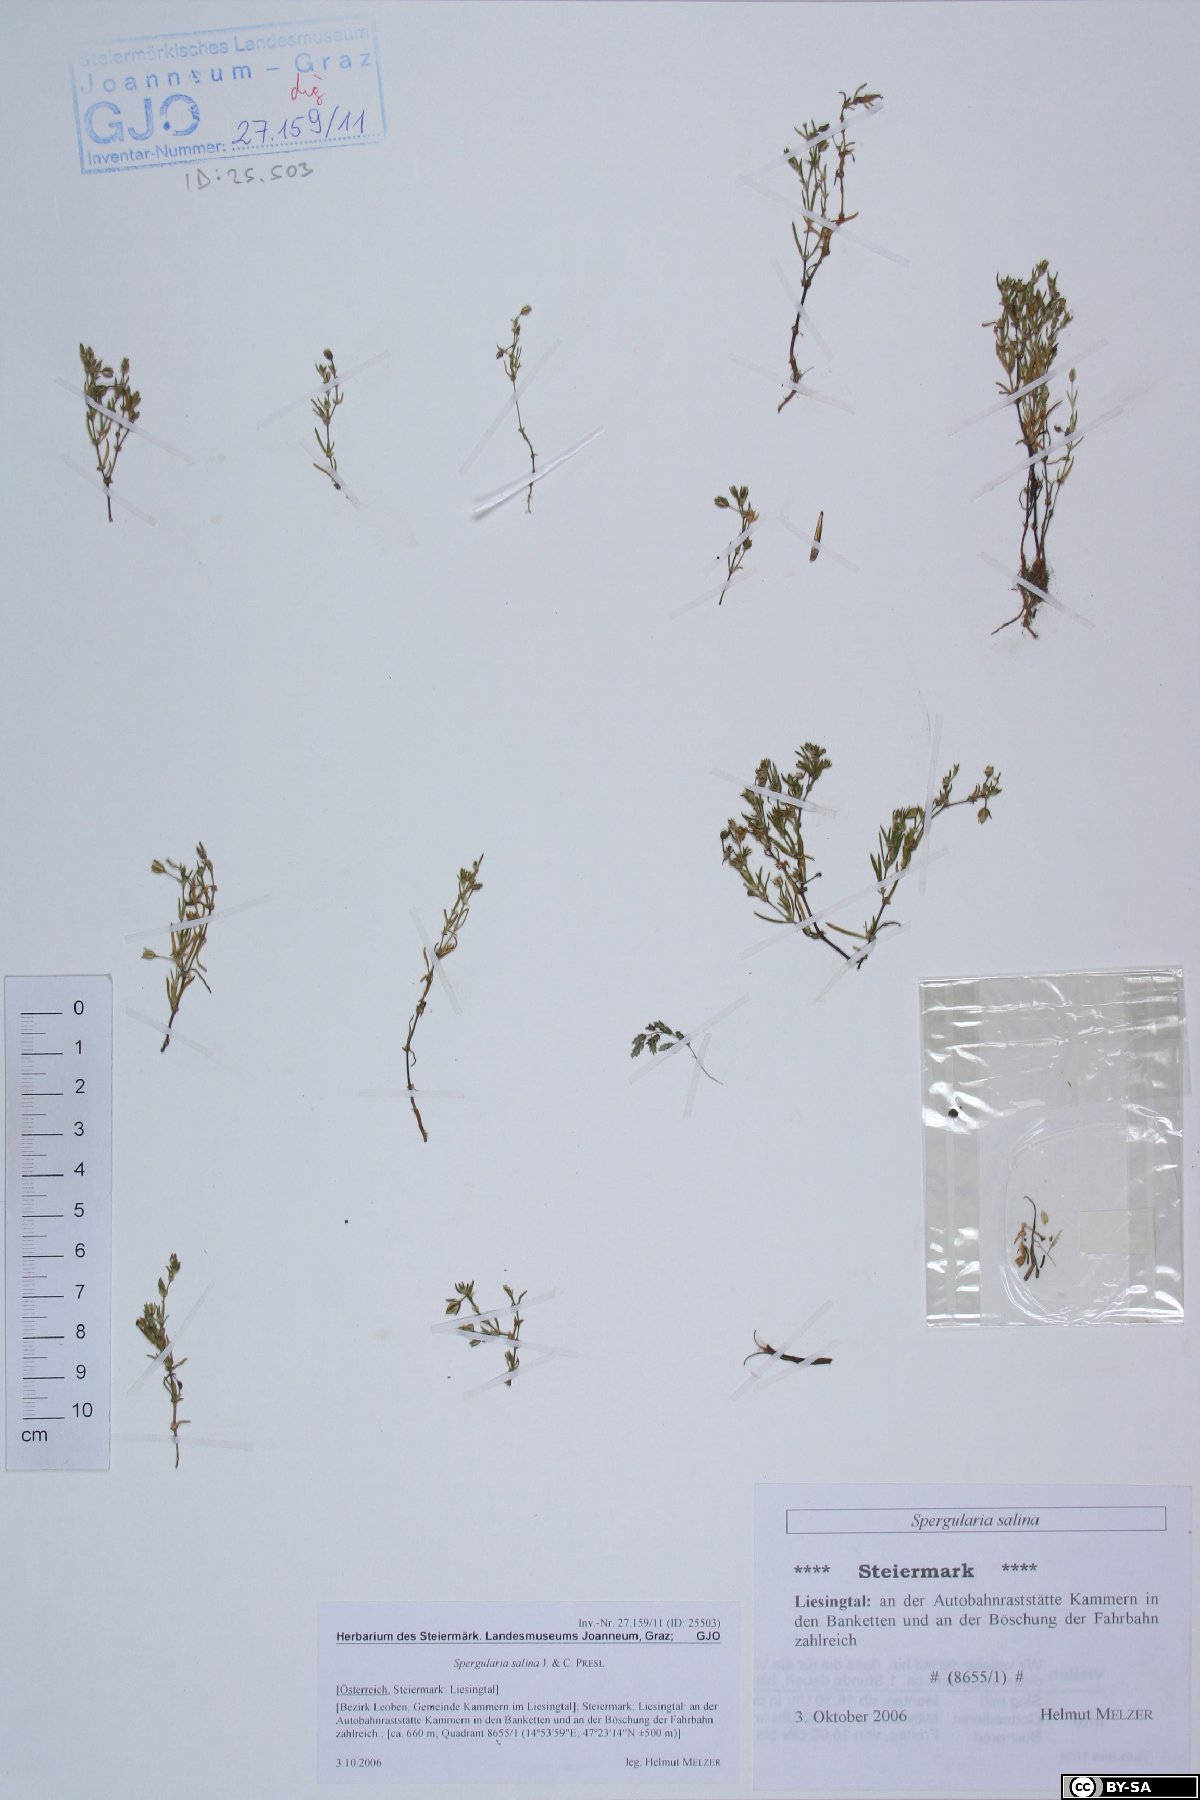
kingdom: Plantae
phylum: Tracheophyta
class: Magnoliopsida
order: Caryophyllales
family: Caryophyllaceae
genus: Spergularia
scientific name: Spergularia marina
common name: Lesser sea-spurrey
